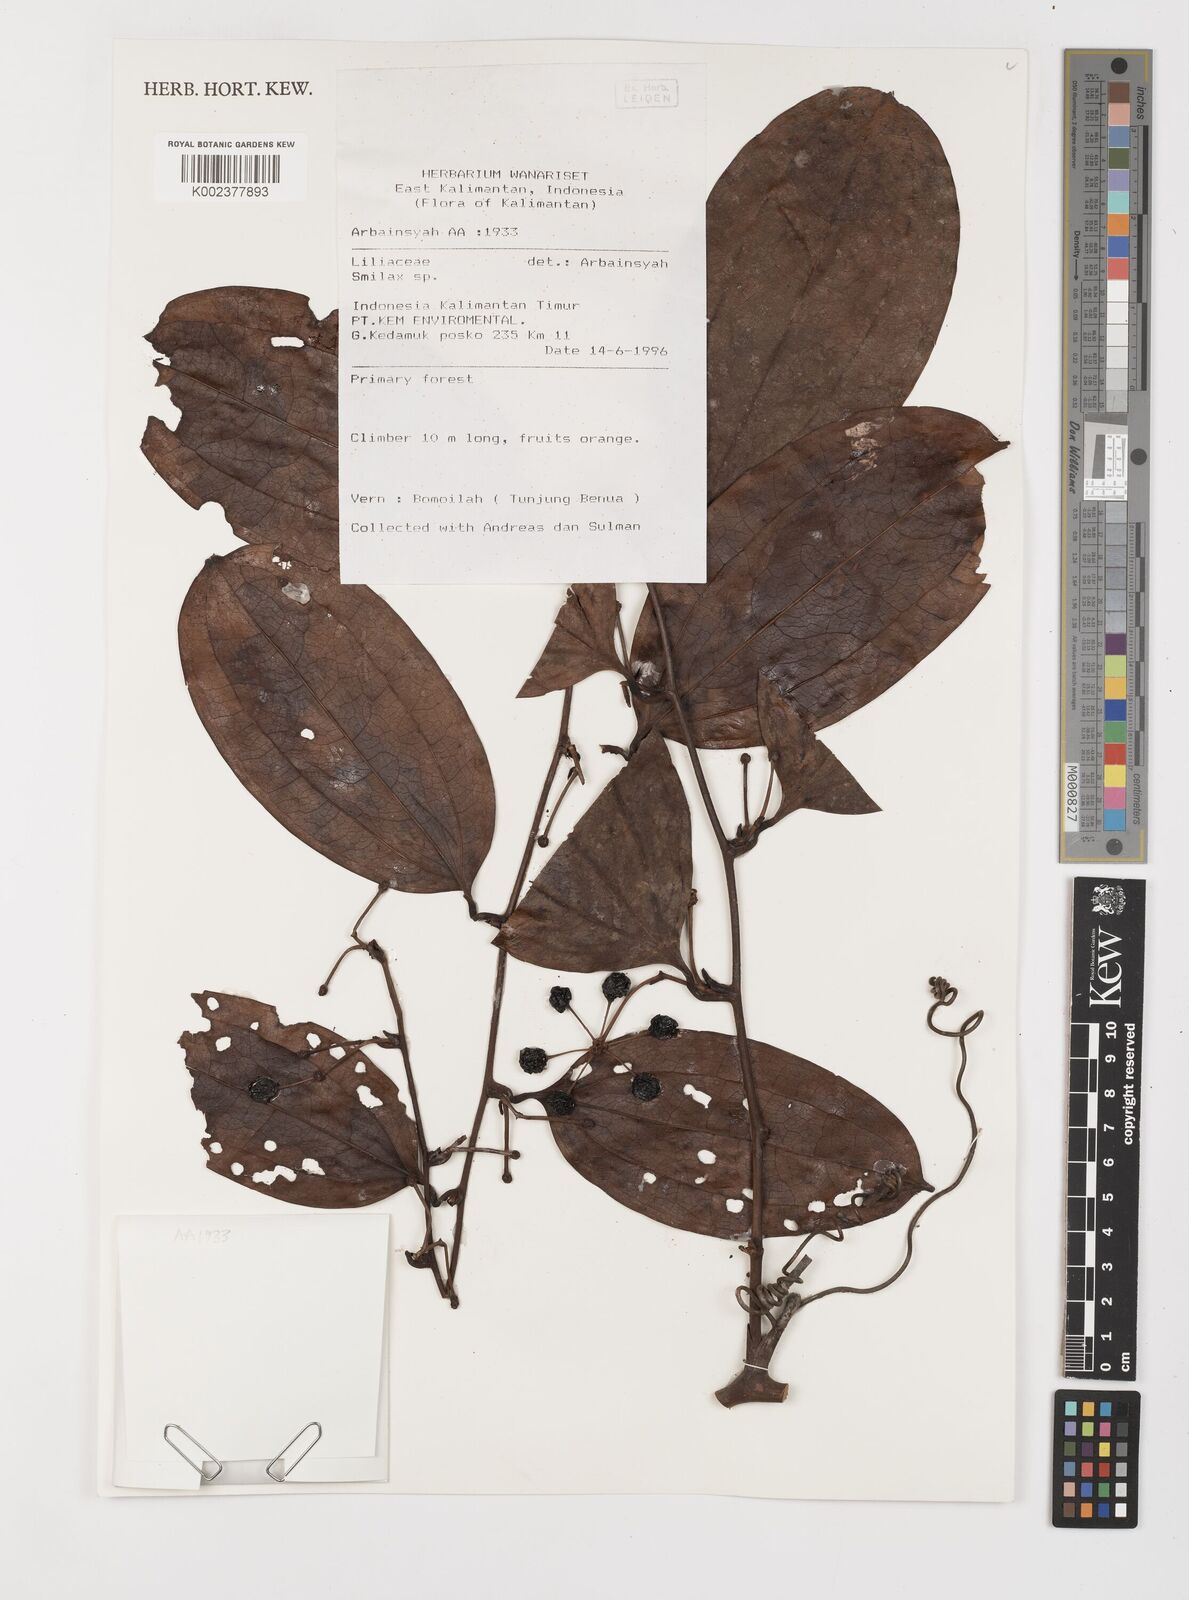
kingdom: Plantae
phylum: Tracheophyta
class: Liliopsida
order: Liliales
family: Smilacaceae
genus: Smilax
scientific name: Smilax
